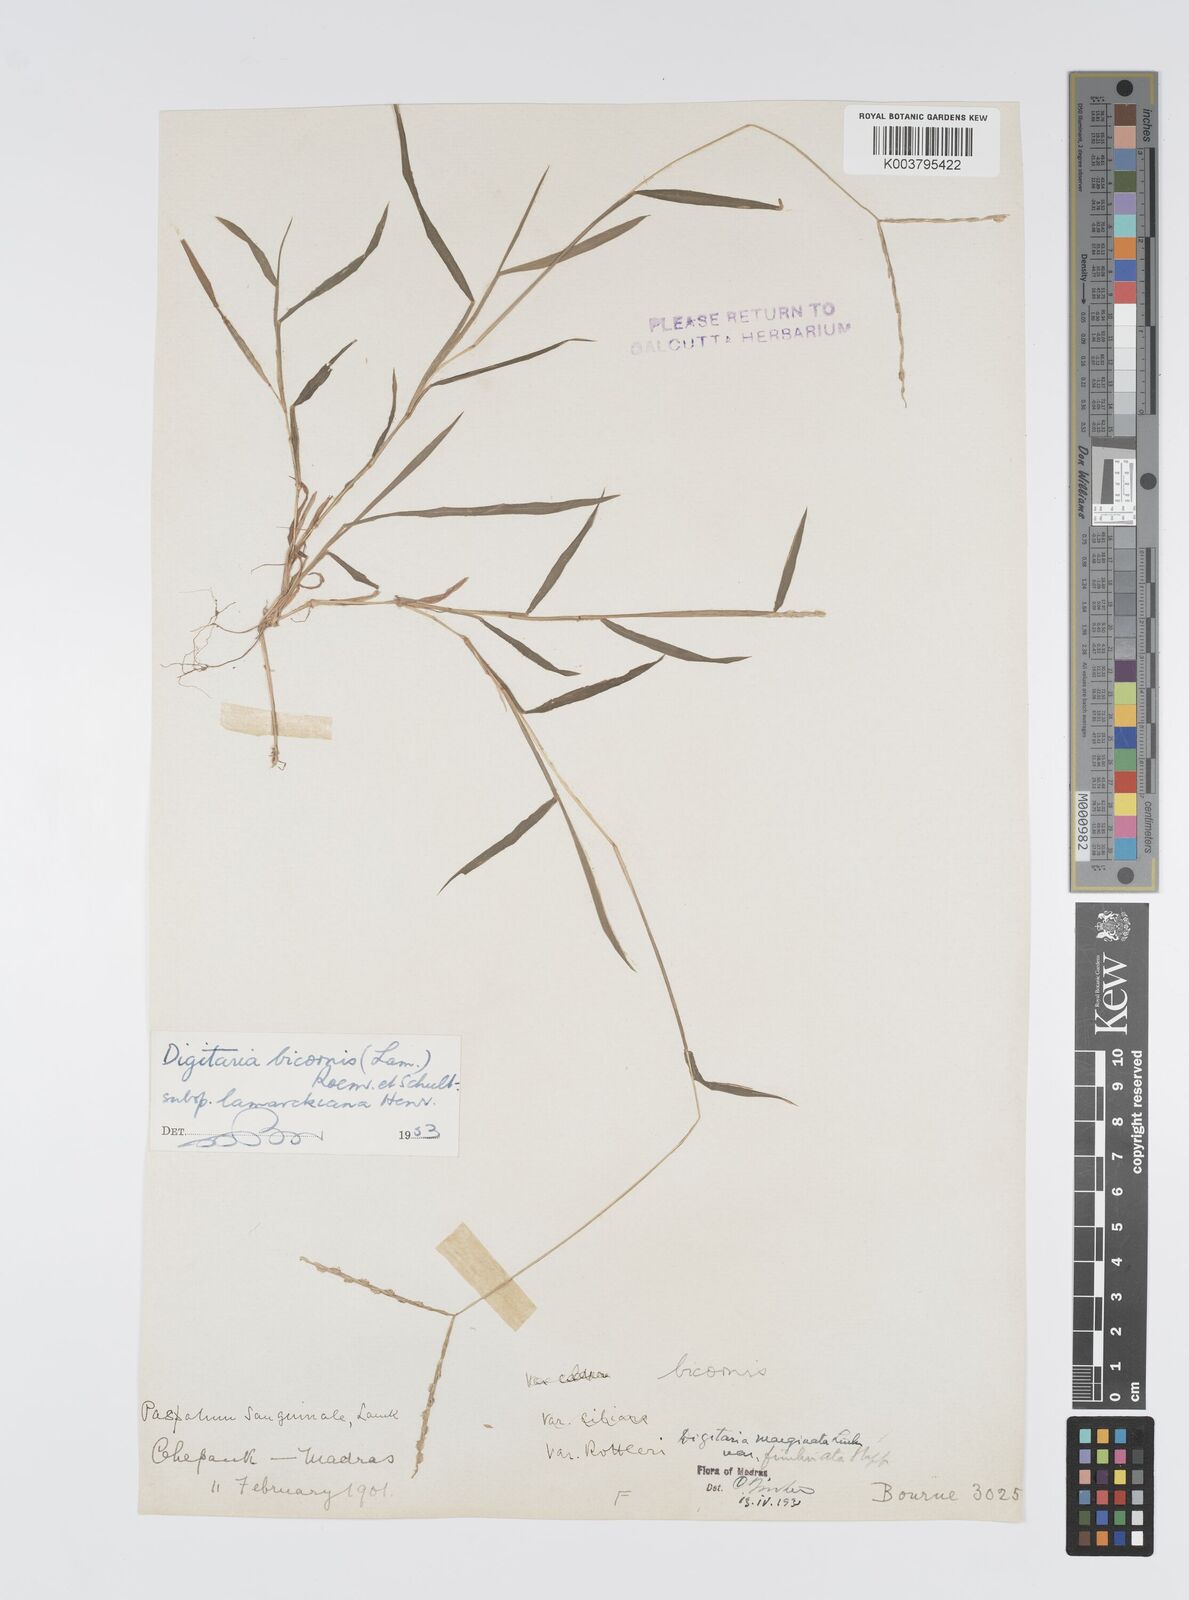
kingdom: Plantae
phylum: Tracheophyta
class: Liliopsida
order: Poales
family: Poaceae
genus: Digitaria
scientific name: Digitaria bicornis
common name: Asian crabgrass
